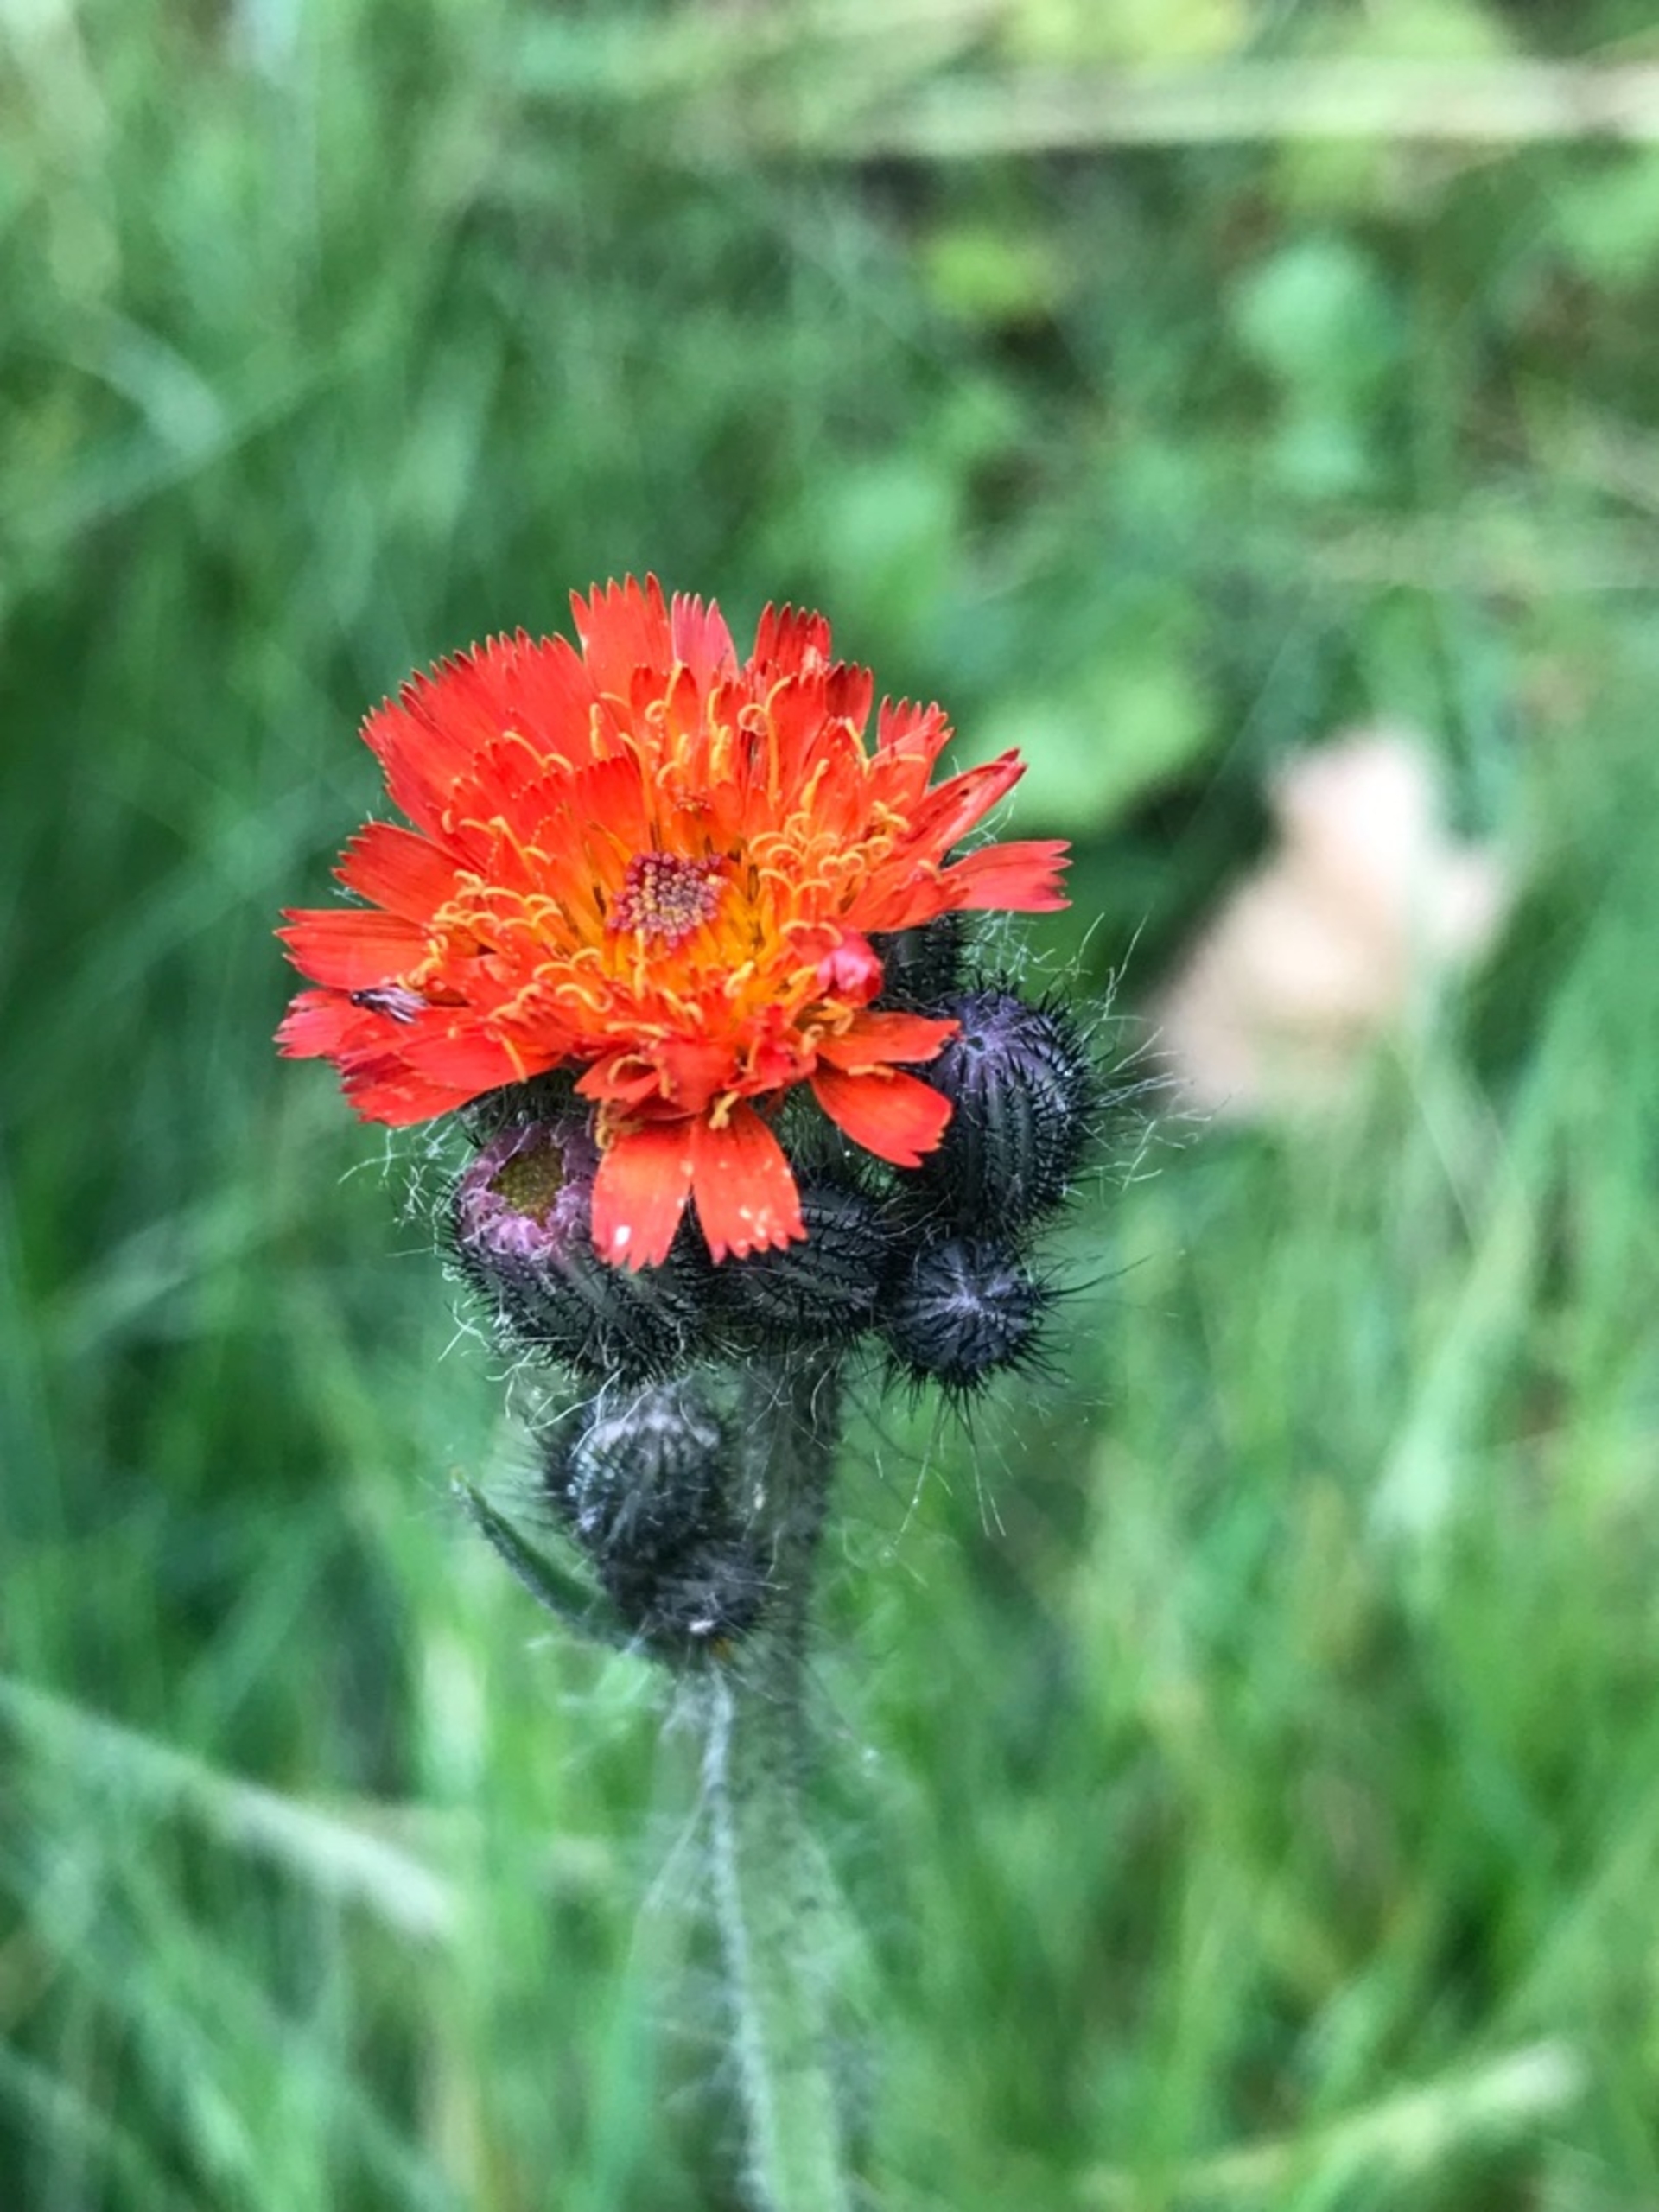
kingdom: Plantae
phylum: Tracheophyta
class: Magnoliopsida
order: Asterales
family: Asteraceae
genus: Pilosella
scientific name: Pilosella aurantiaca
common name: Pomerans-høgeurt
